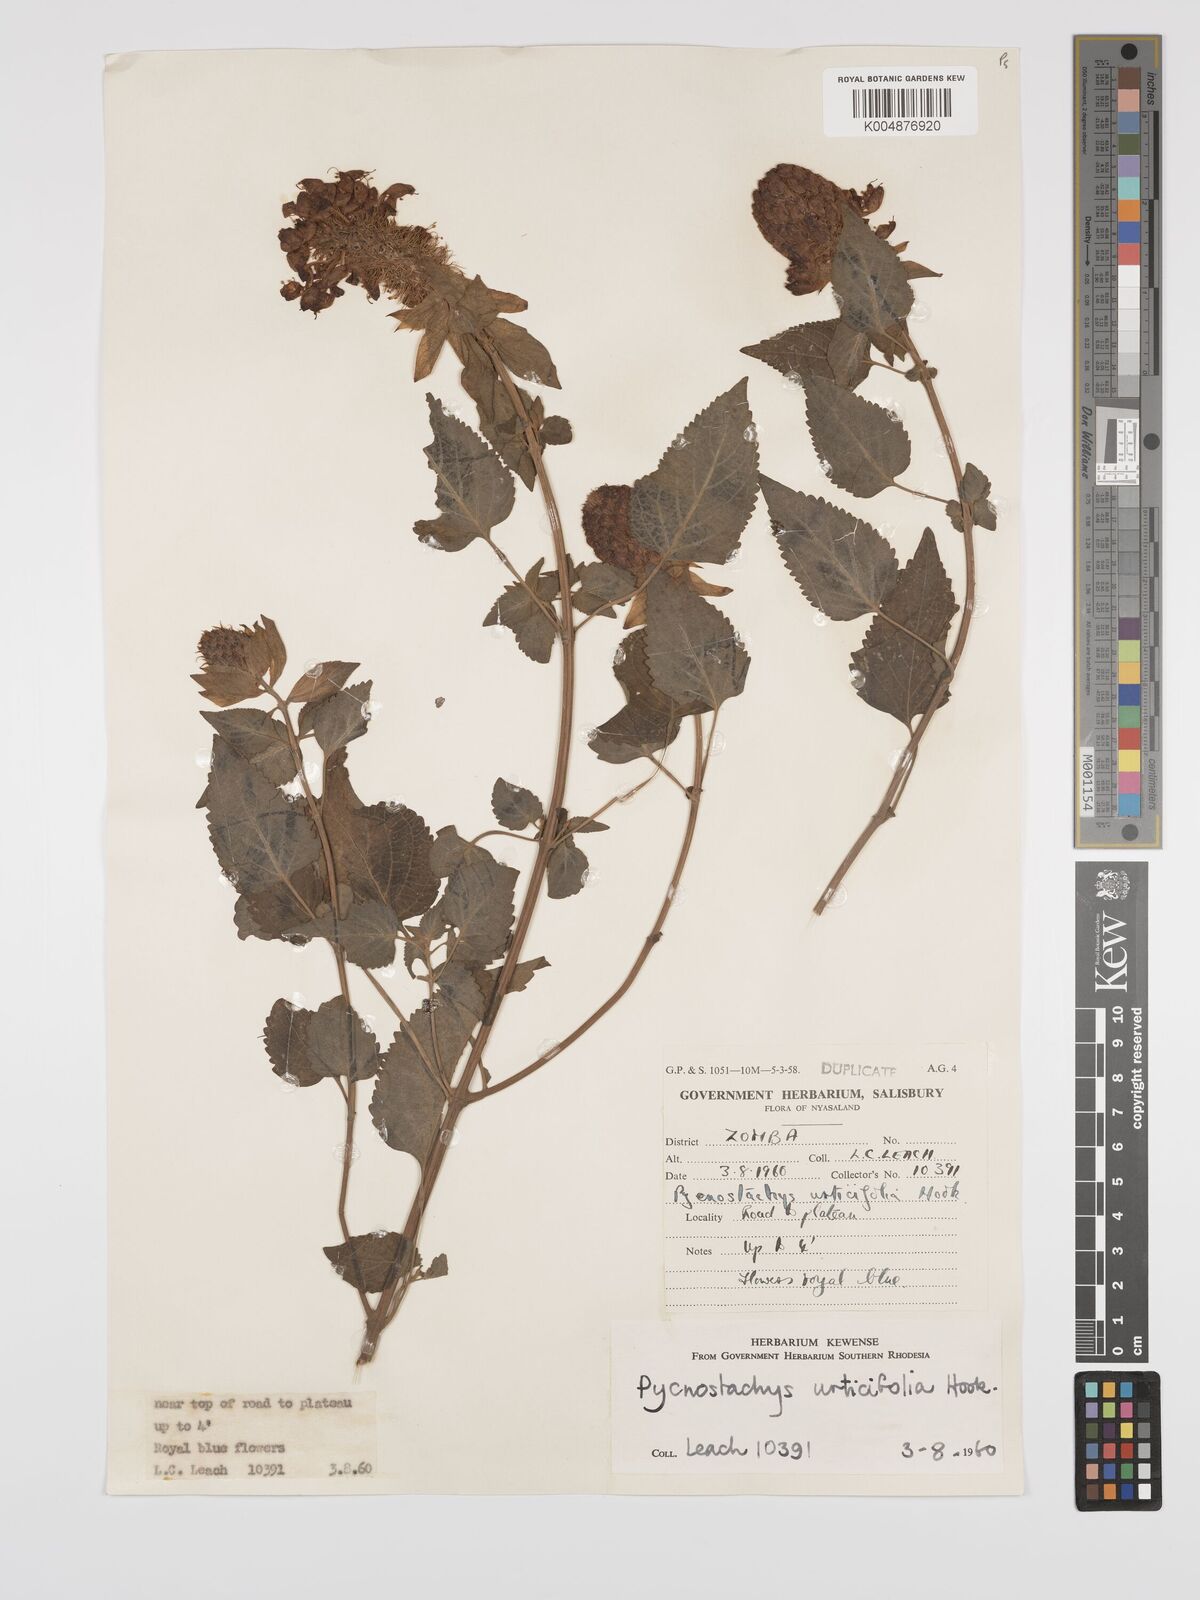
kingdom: Plantae
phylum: Tracheophyta
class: Magnoliopsida
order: Lamiales
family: Lamiaceae
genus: Coleus
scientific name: Coleus livingstonei
